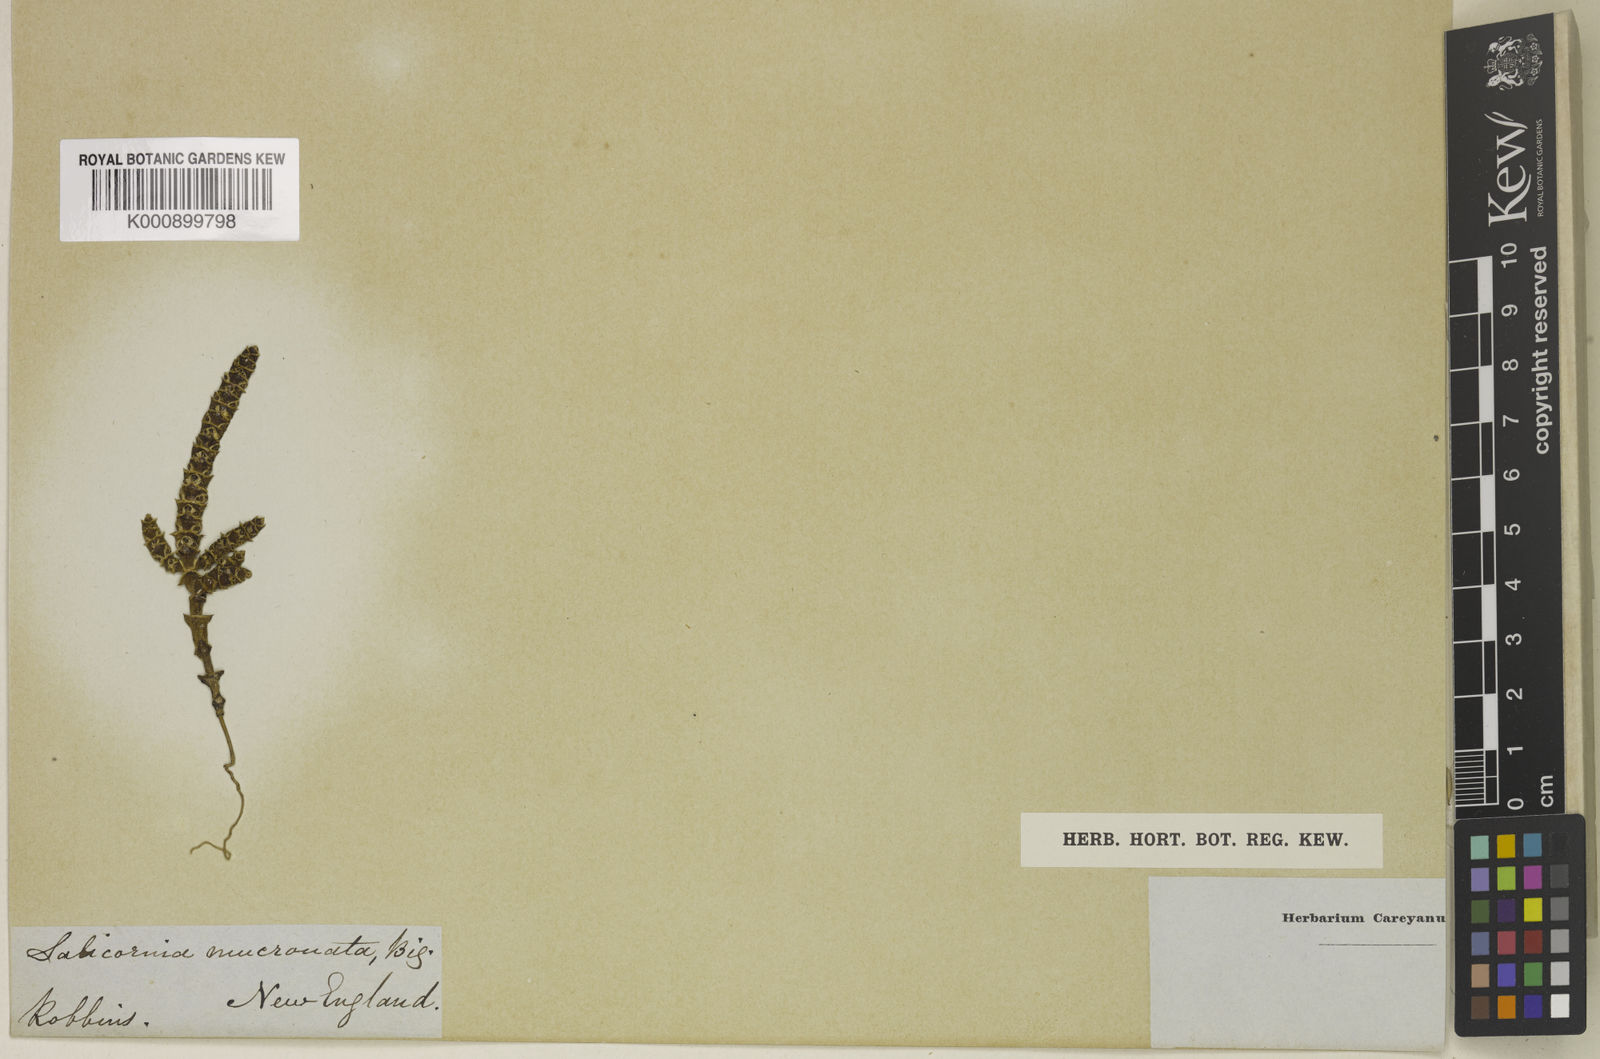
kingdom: Plantae
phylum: Tracheophyta
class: Magnoliopsida
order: Caryophyllales
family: Amaranthaceae
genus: Salicornia
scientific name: Salicornia bigelovii
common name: Dwarf glasswort
